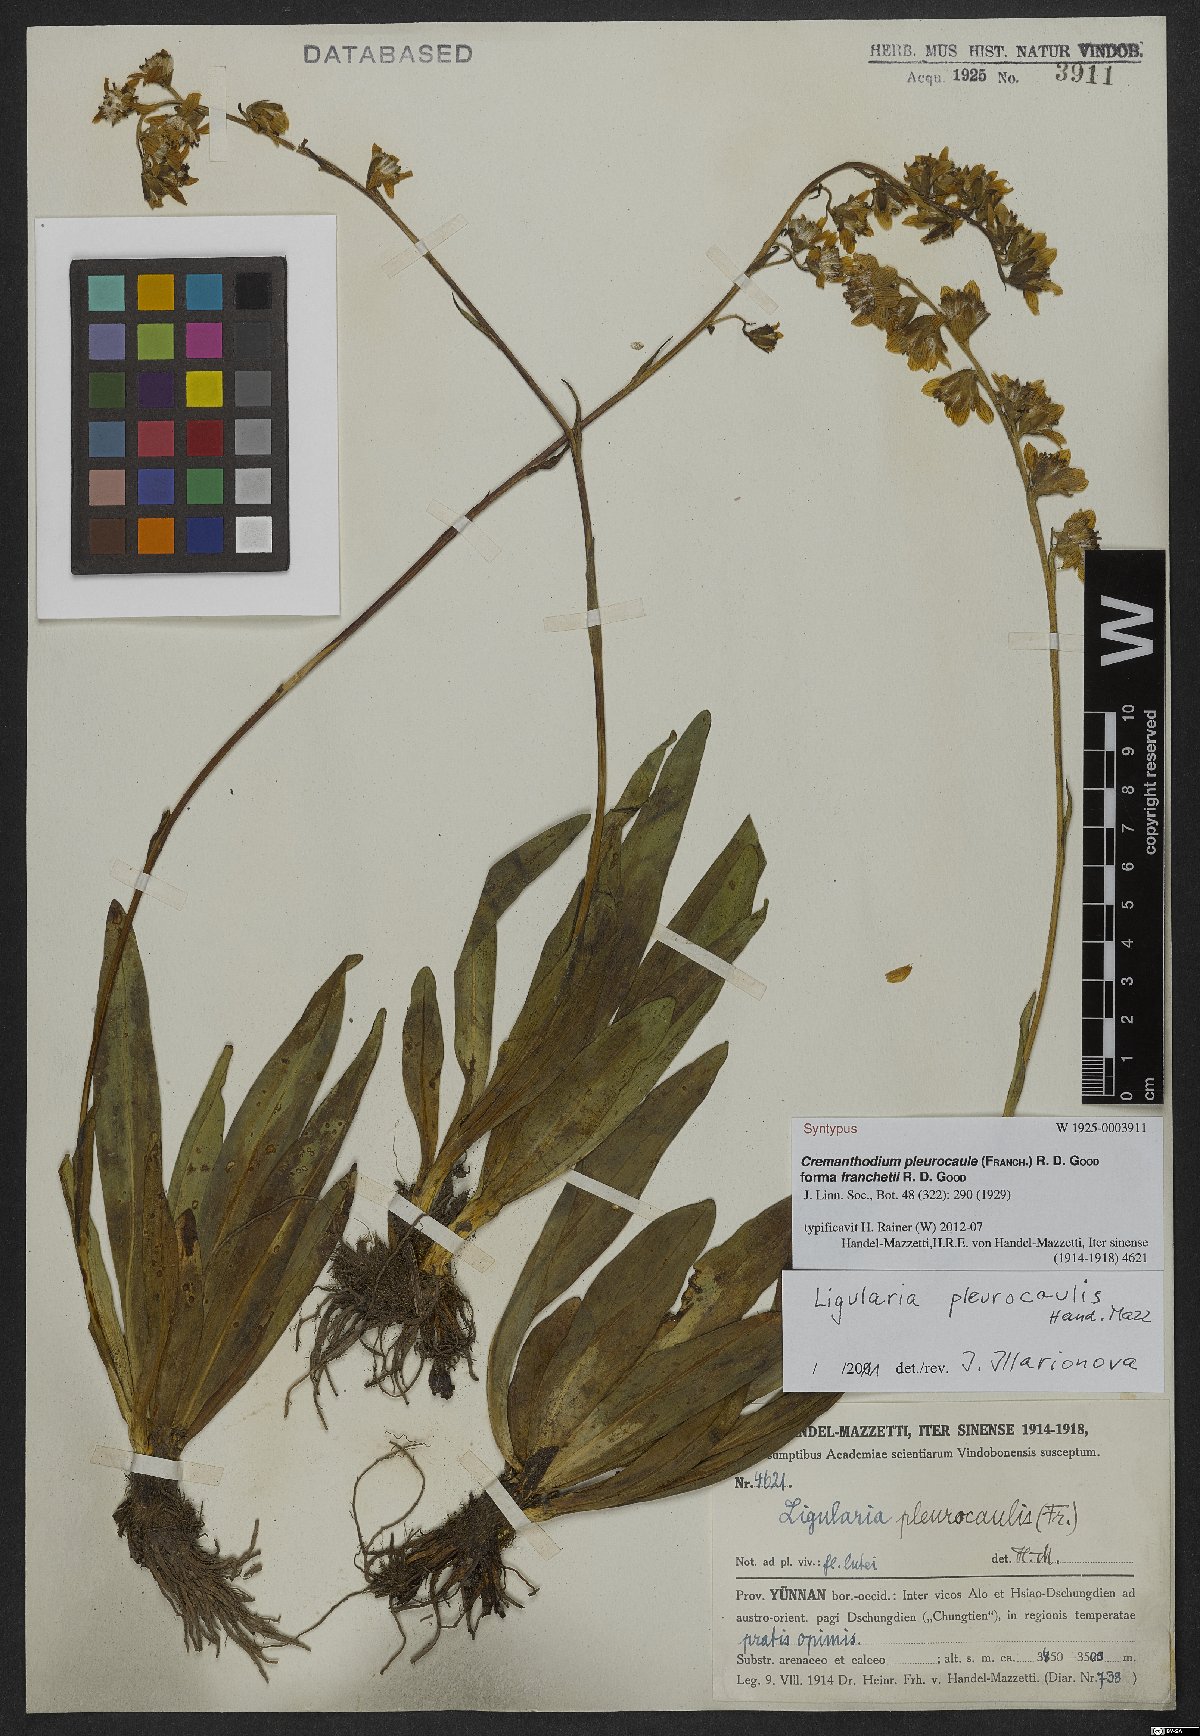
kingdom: Plantae
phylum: Tracheophyta
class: Magnoliopsida
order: Asterales
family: Asteraceae
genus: Ligularia
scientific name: Ligularia pleurocaulis
